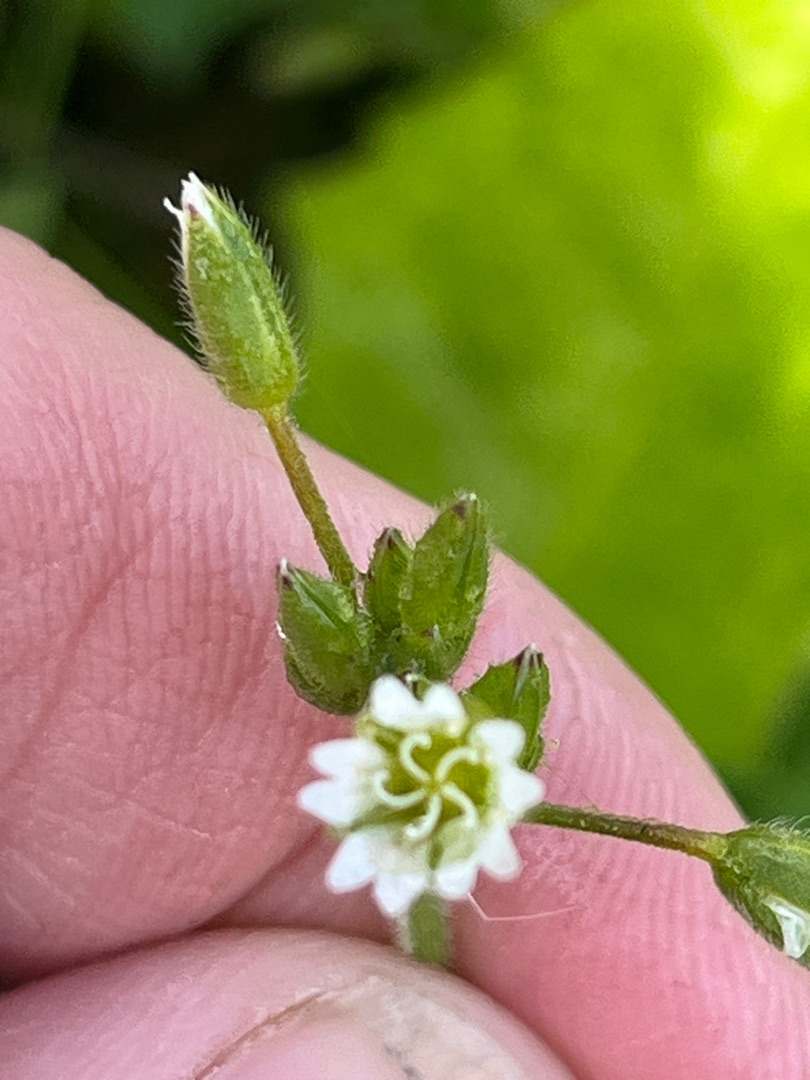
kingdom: Plantae
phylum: Tracheophyta
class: Magnoliopsida
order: Caryophyllales
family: Caryophyllaceae
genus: Cerastium
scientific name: Cerastium fontanum
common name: Almindelig hønsetarm
